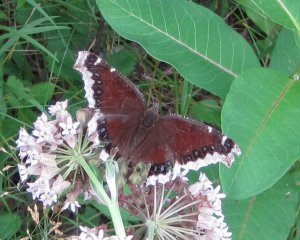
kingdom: Animalia
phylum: Arthropoda
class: Insecta
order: Lepidoptera
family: Nymphalidae
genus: Nymphalis
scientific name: Nymphalis antiopa
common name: Mourning Cloak
